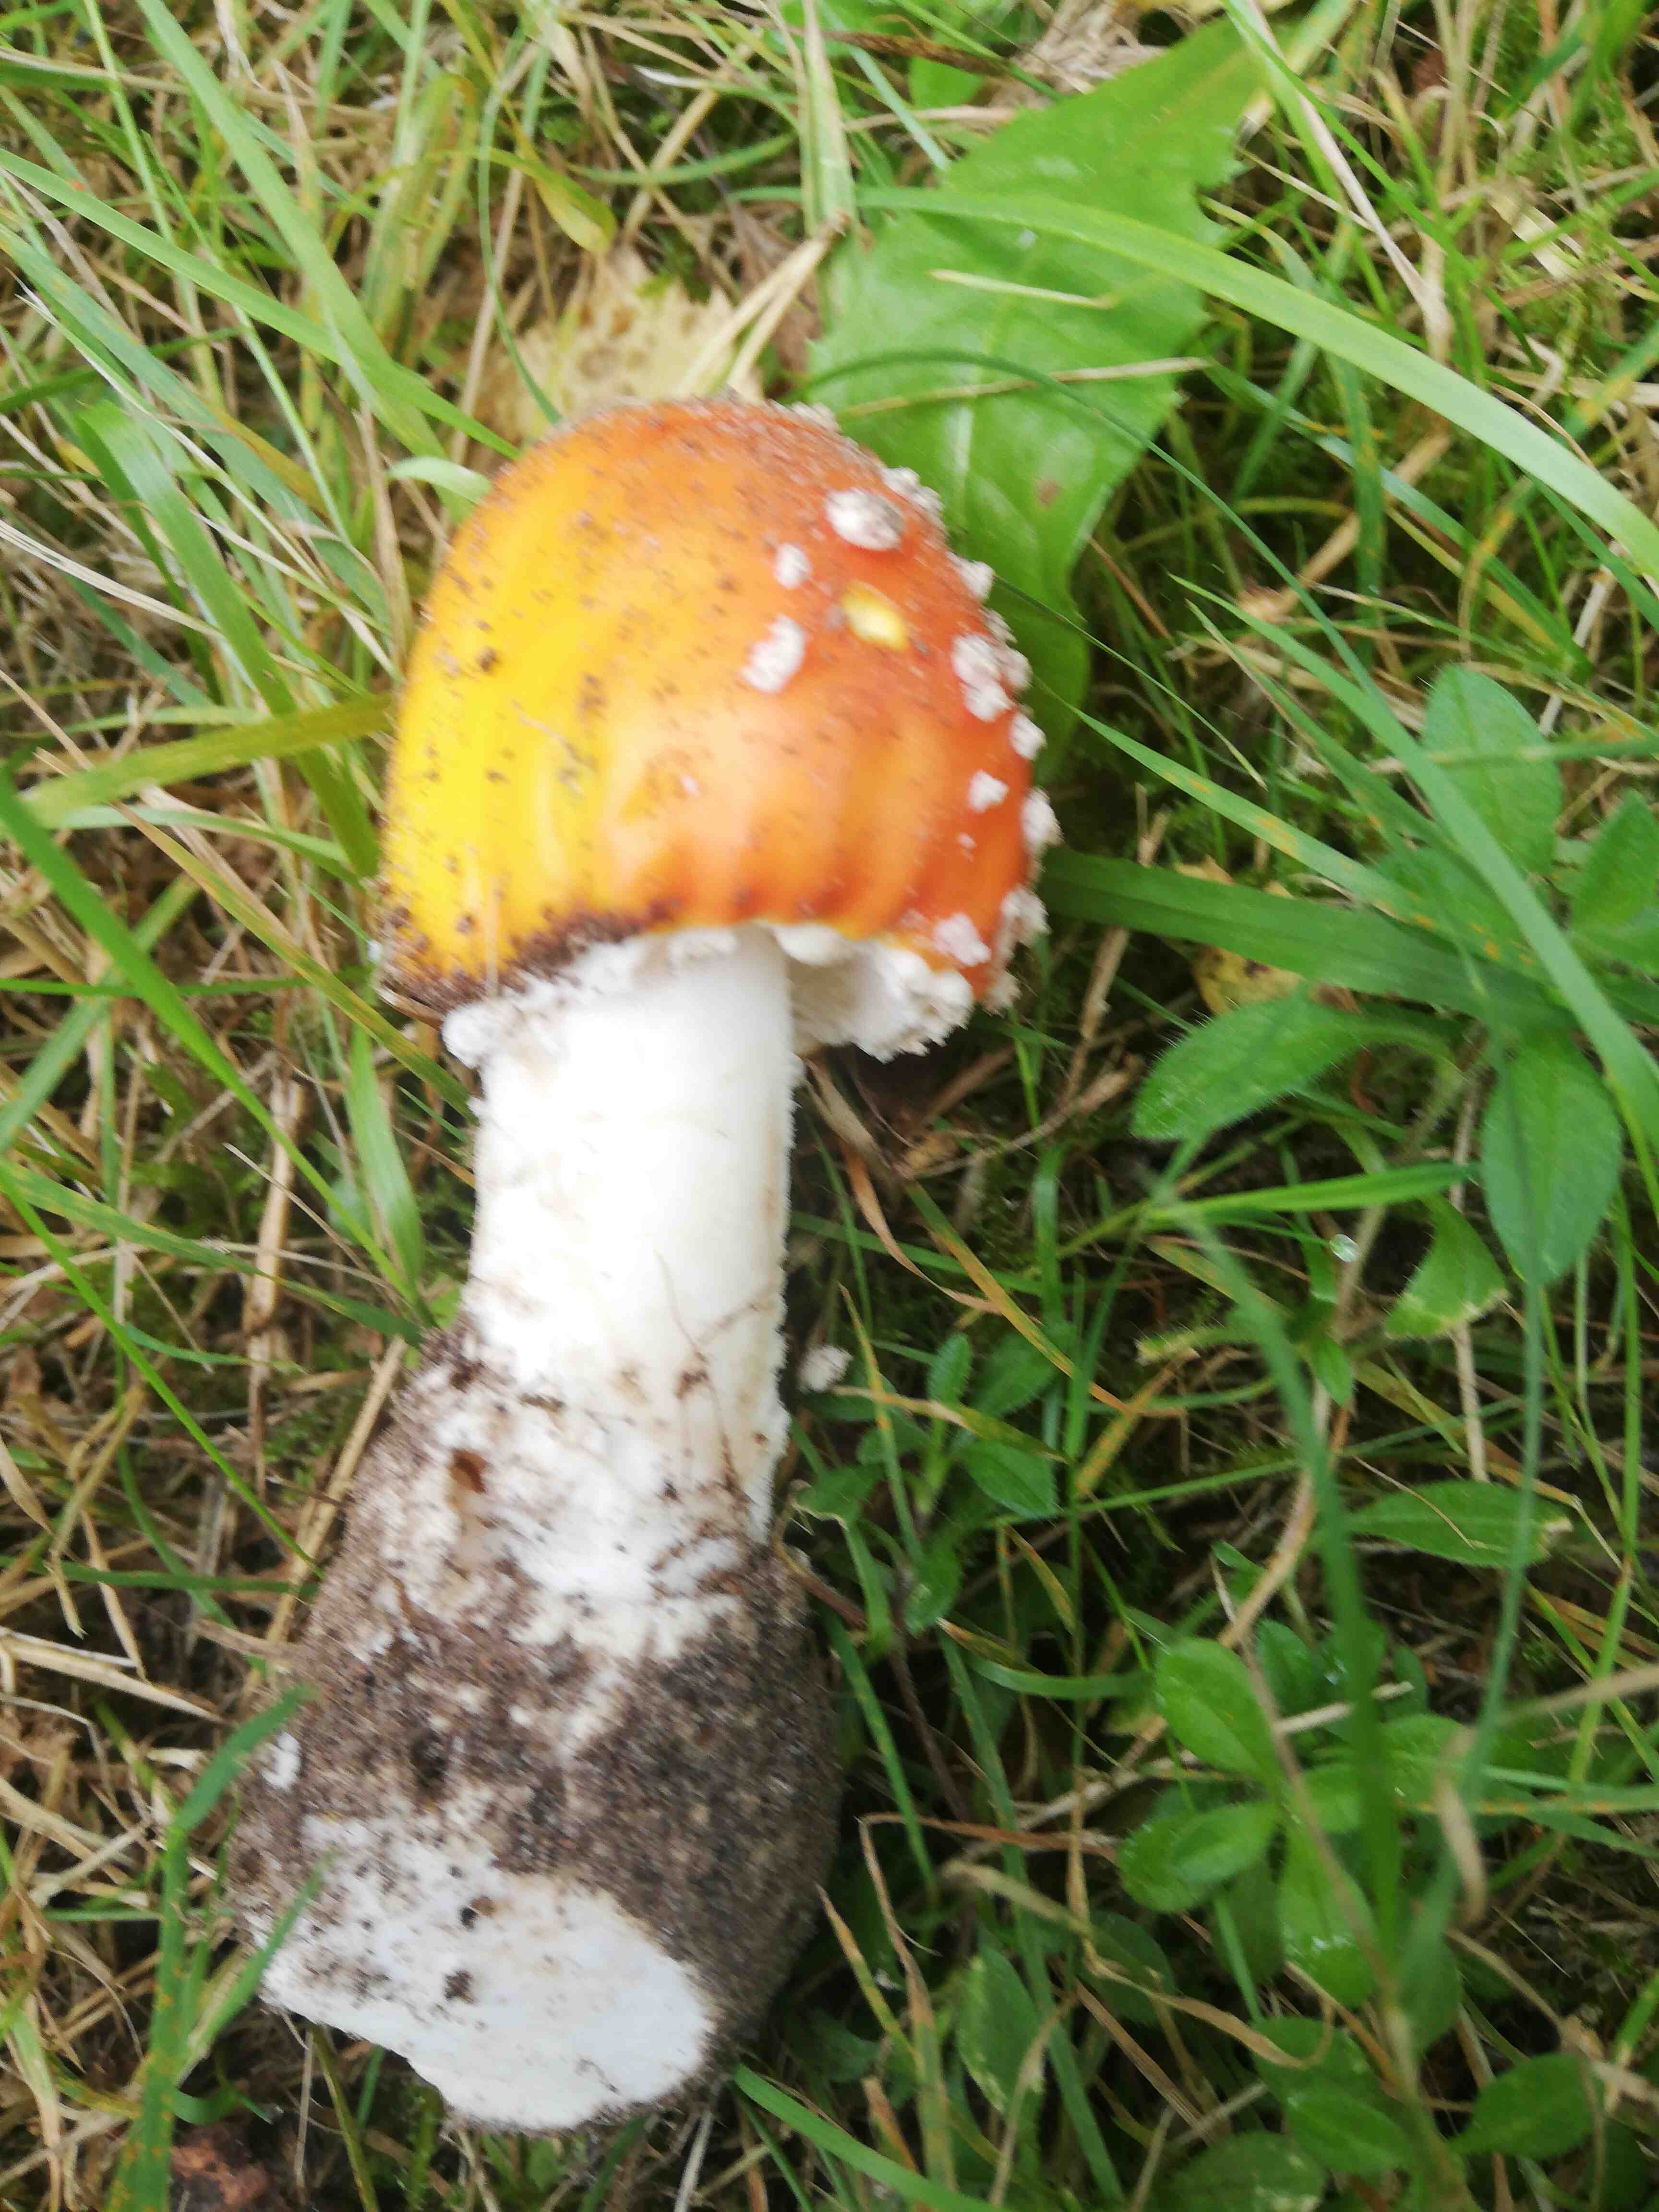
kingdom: Fungi
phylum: Basidiomycota
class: Agaricomycetes
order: Agaricales
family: Amanitaceae
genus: Amanita
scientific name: Amanita muscaria
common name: rød fluesvamp
